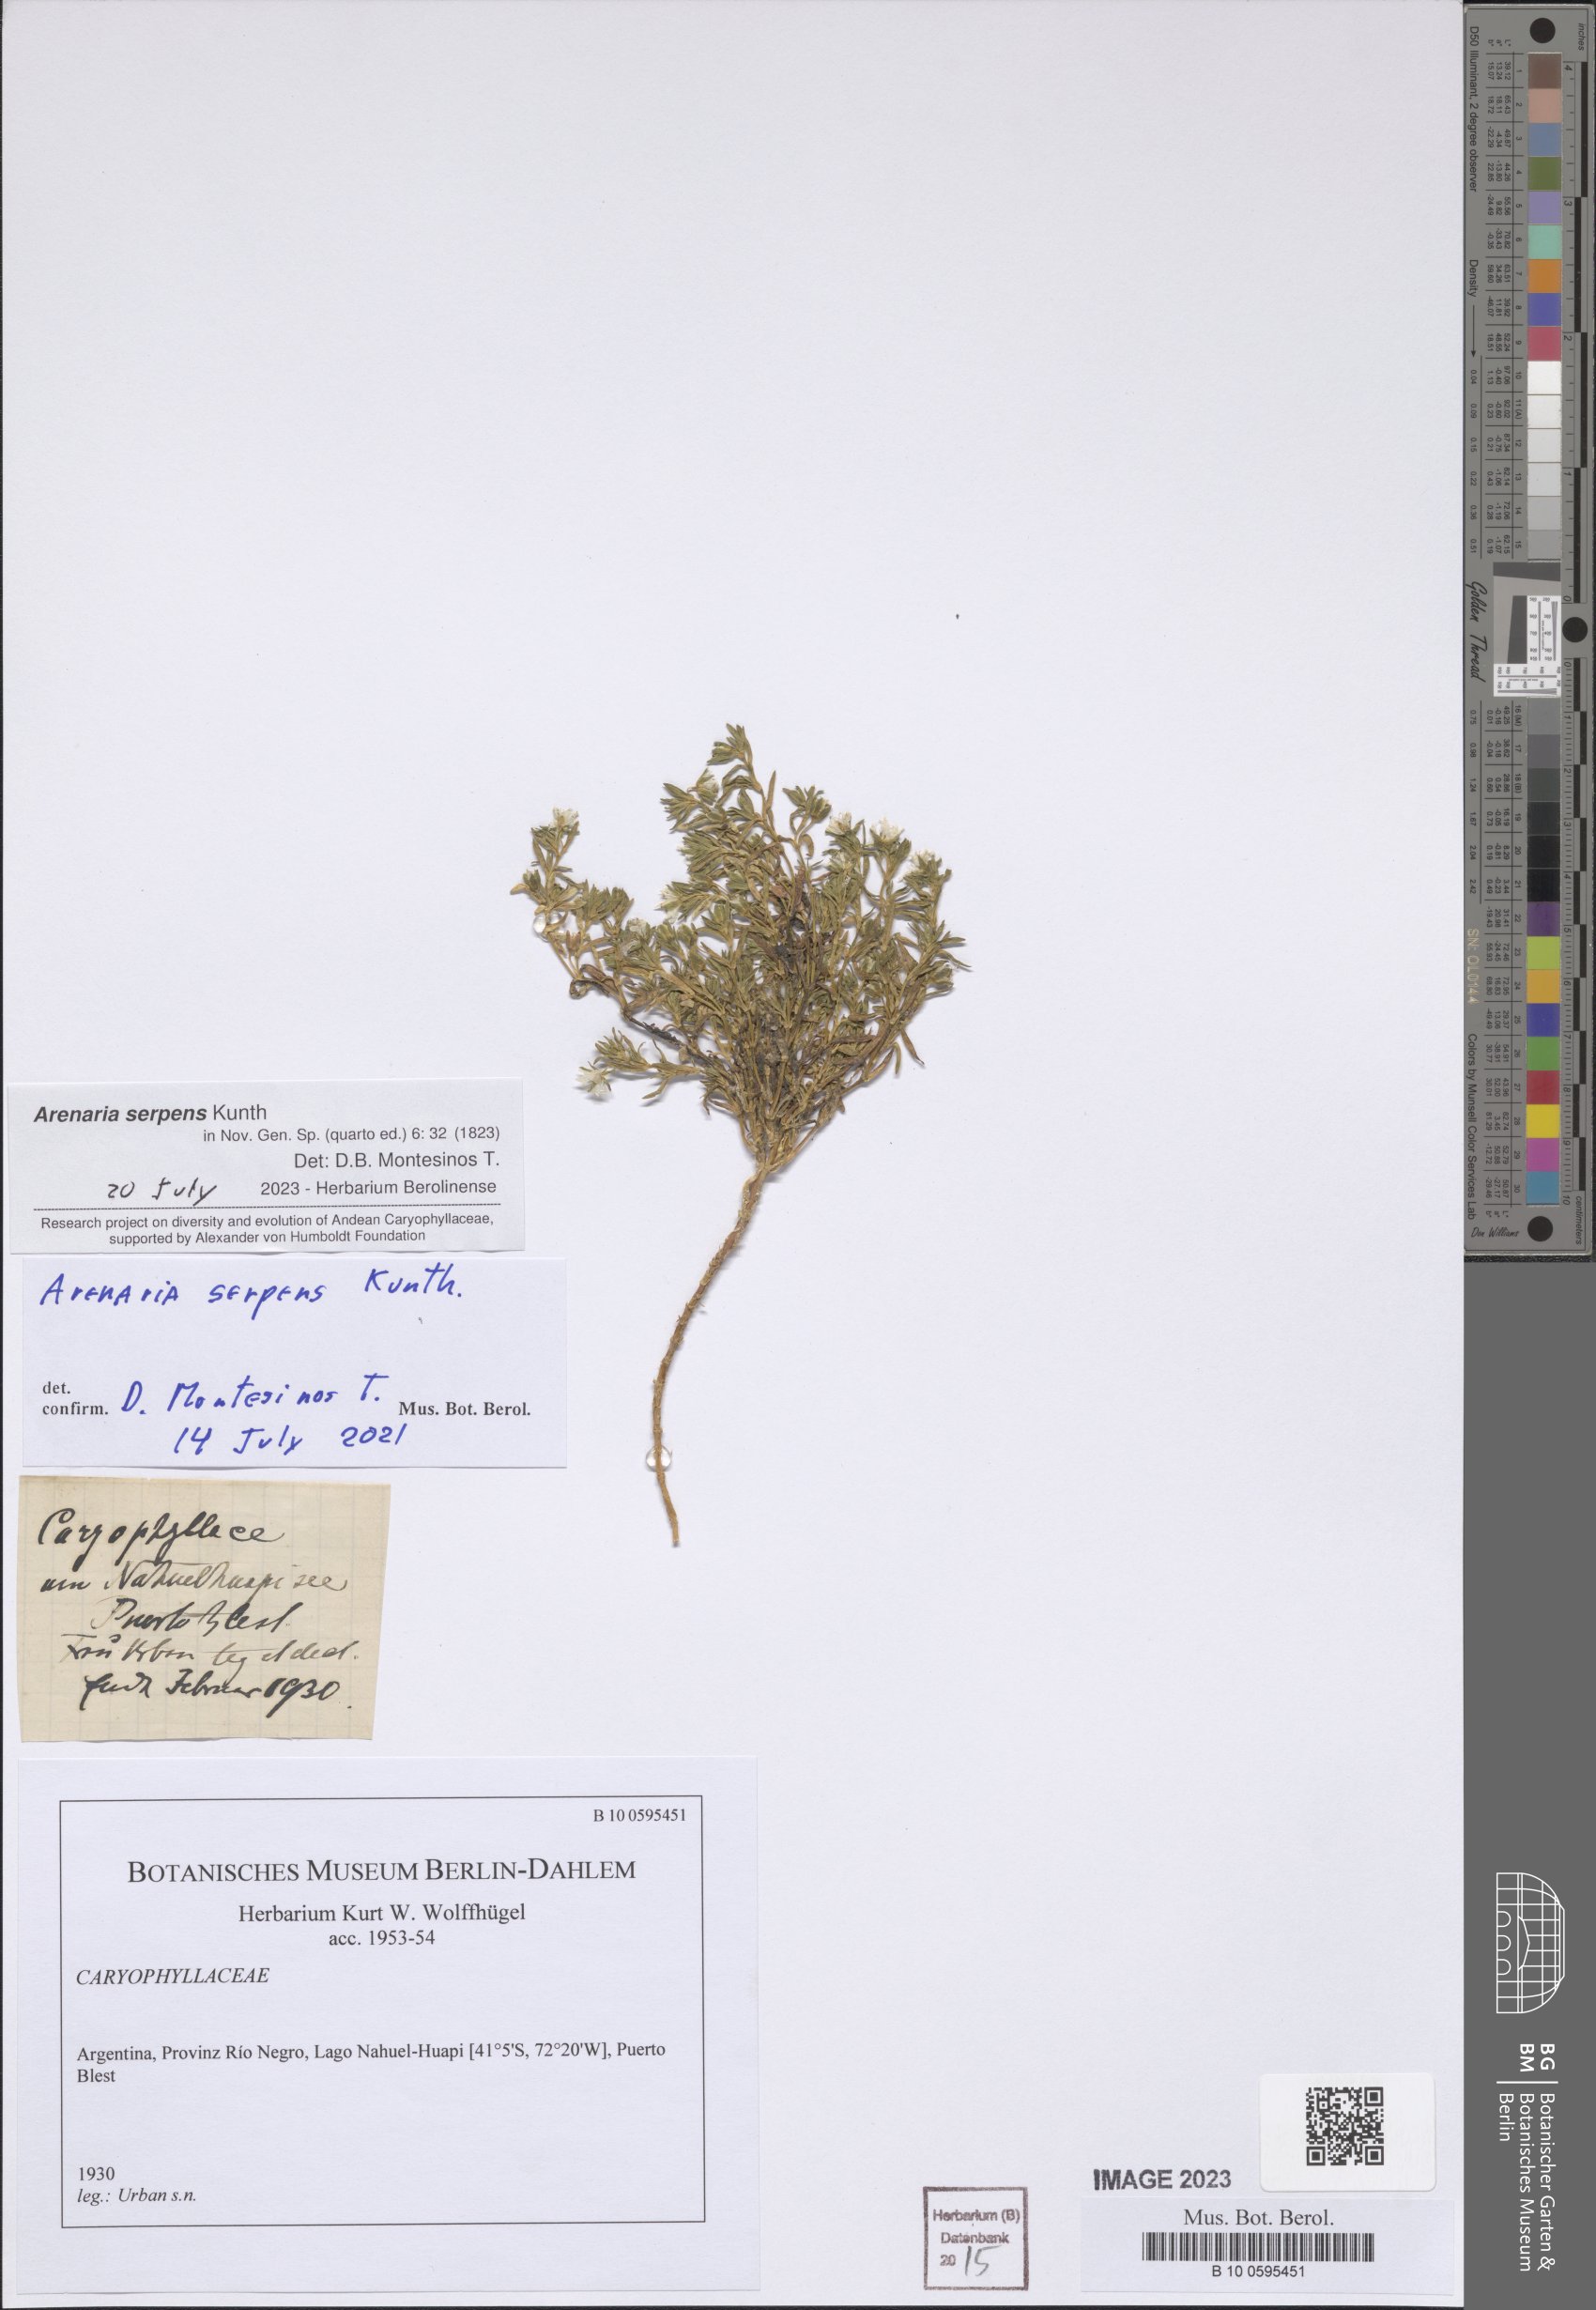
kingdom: Plantae
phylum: Tracheophyta
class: Magnoliopsida
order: Caryophyllales
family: Caryophyllaceae
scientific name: Caryophyllaceae
